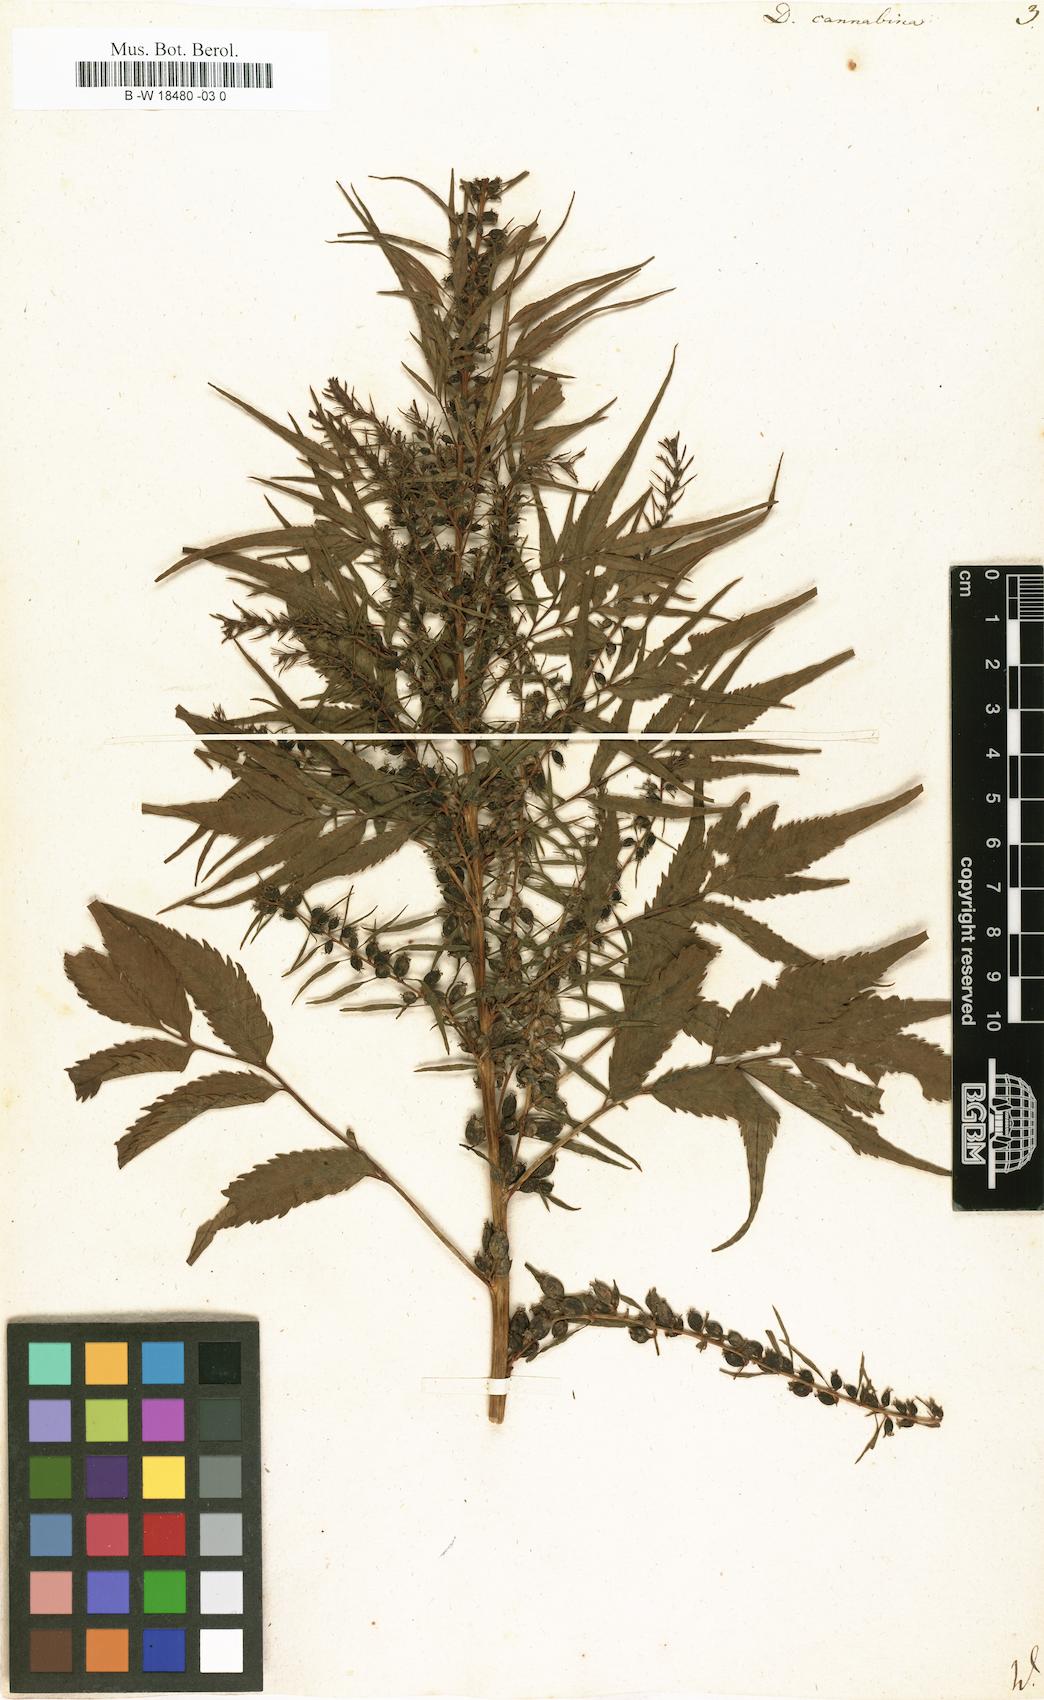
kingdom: Plantae
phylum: Tracheophyta
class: Magnoliopsida
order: Cucurbitales
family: Datiscaceae
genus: Datisca
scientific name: Datisca cannabina
